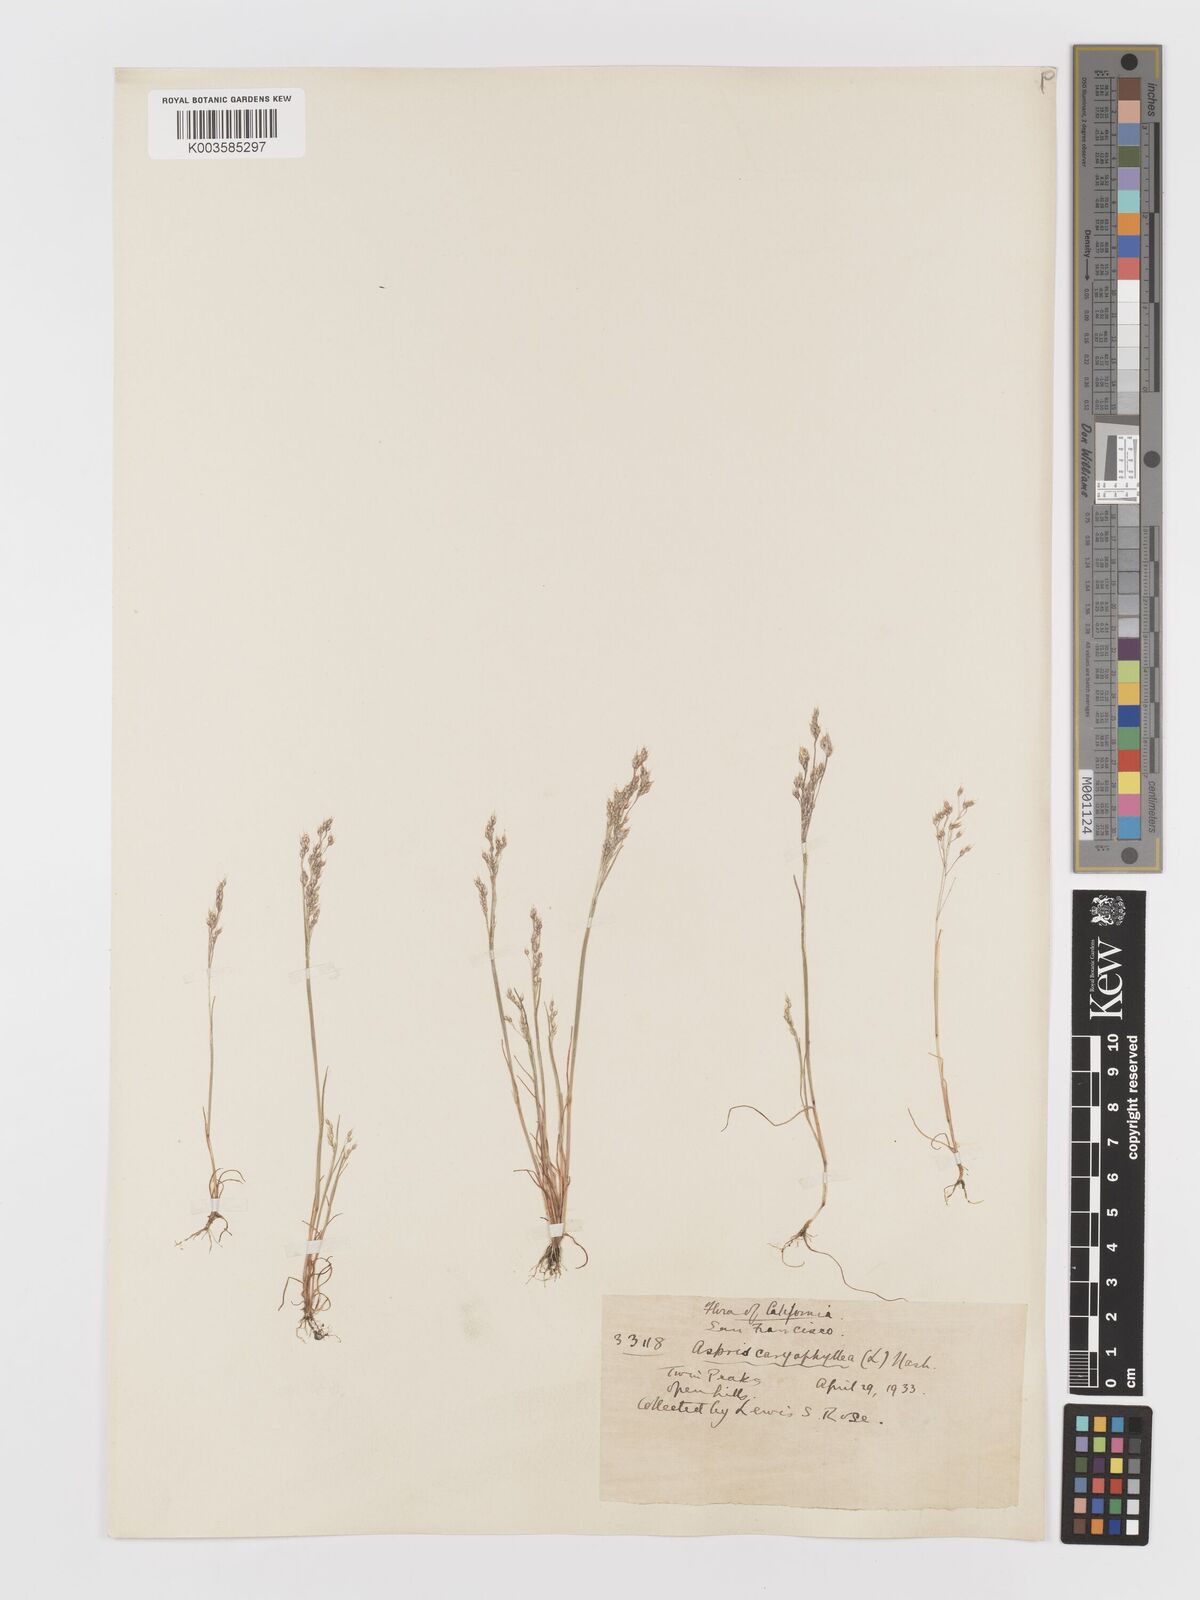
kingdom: Plantae
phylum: Tracheophyta
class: Liliopsida
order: Poales
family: Poaceae
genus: Aira
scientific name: Aira caryophyllea
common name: Silver hairgrass
